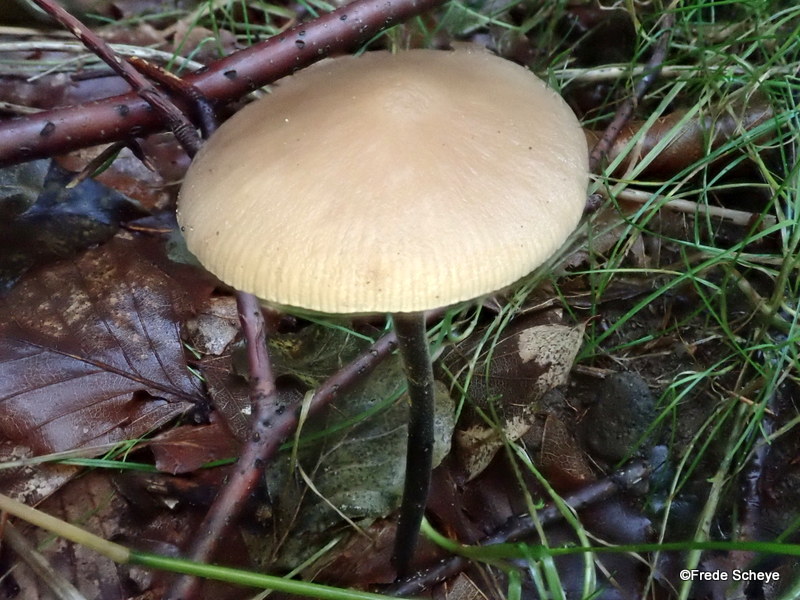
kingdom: Fungi
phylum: Basidiomycota
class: Agaricomycetes
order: Agaricales
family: Omphalotaceae
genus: Mycetinis
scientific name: Mycetinis alliaceus
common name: stor løghat
